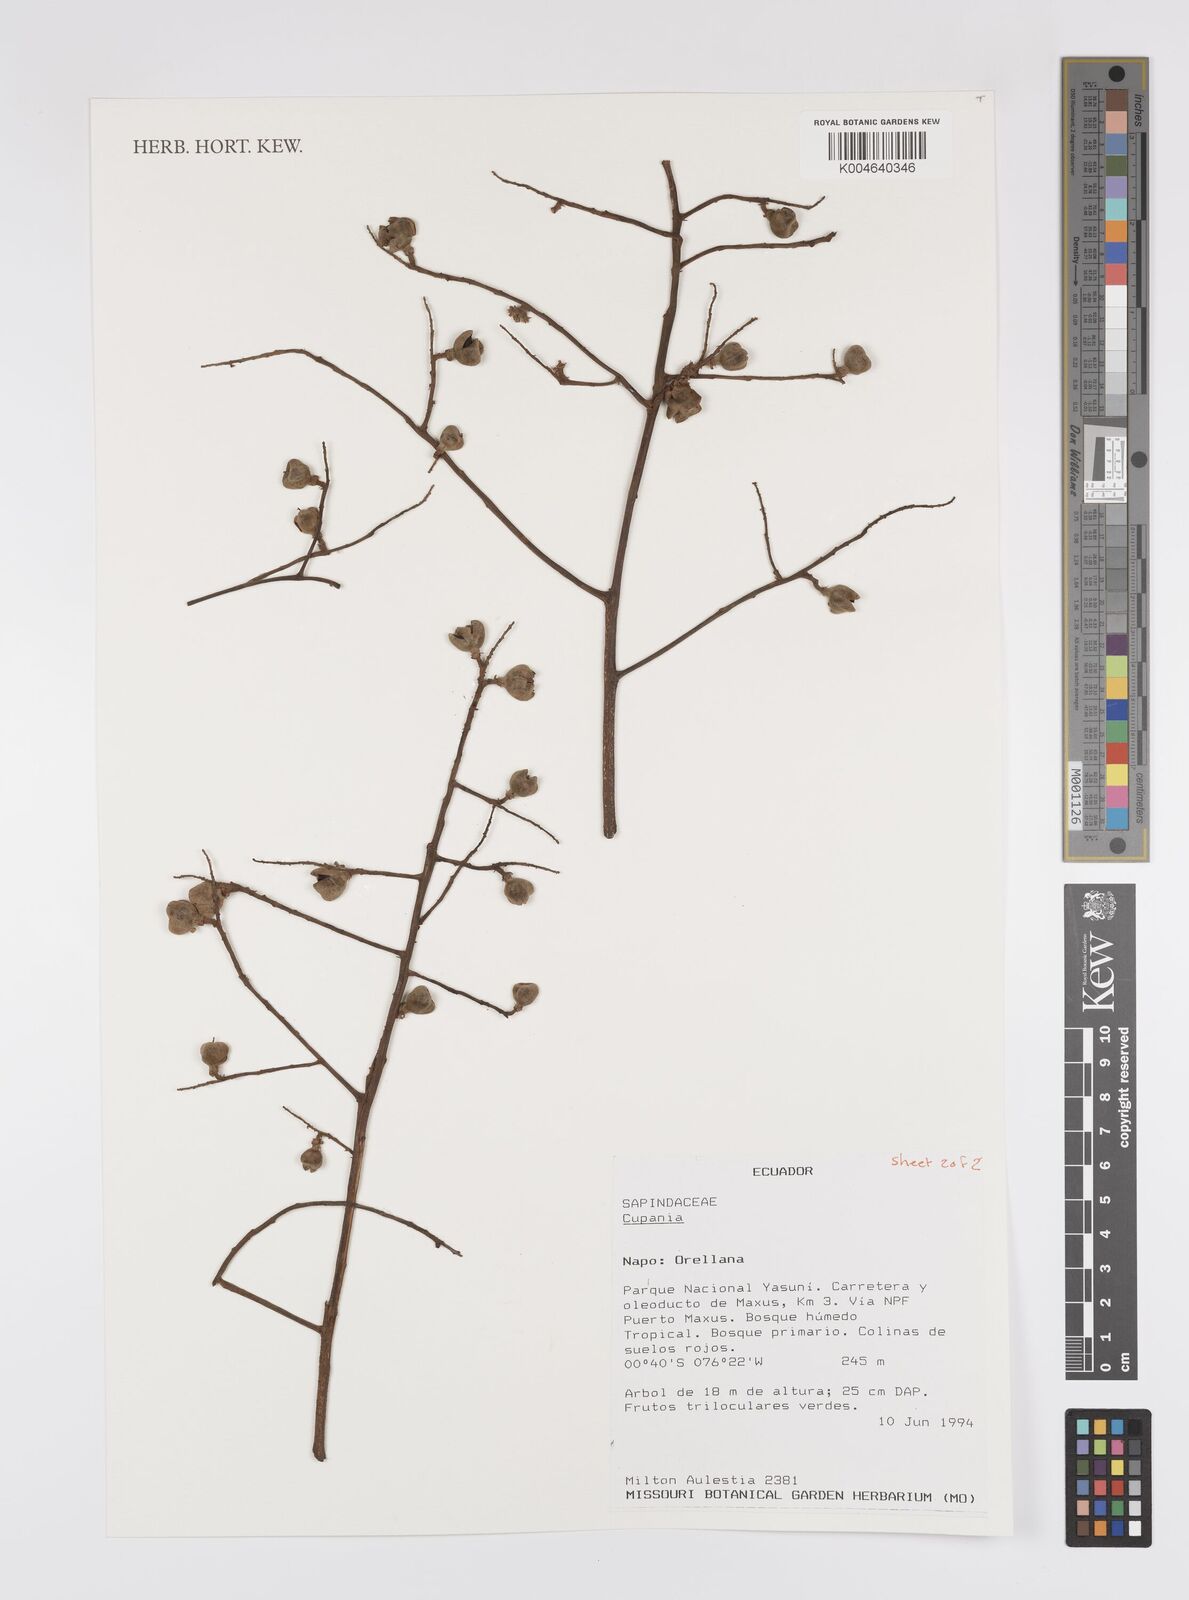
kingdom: Plantae
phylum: Tracheophyta
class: Magnoliopsida
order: Sapindales
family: Sapindaceae
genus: Cupania
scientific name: Cupania
